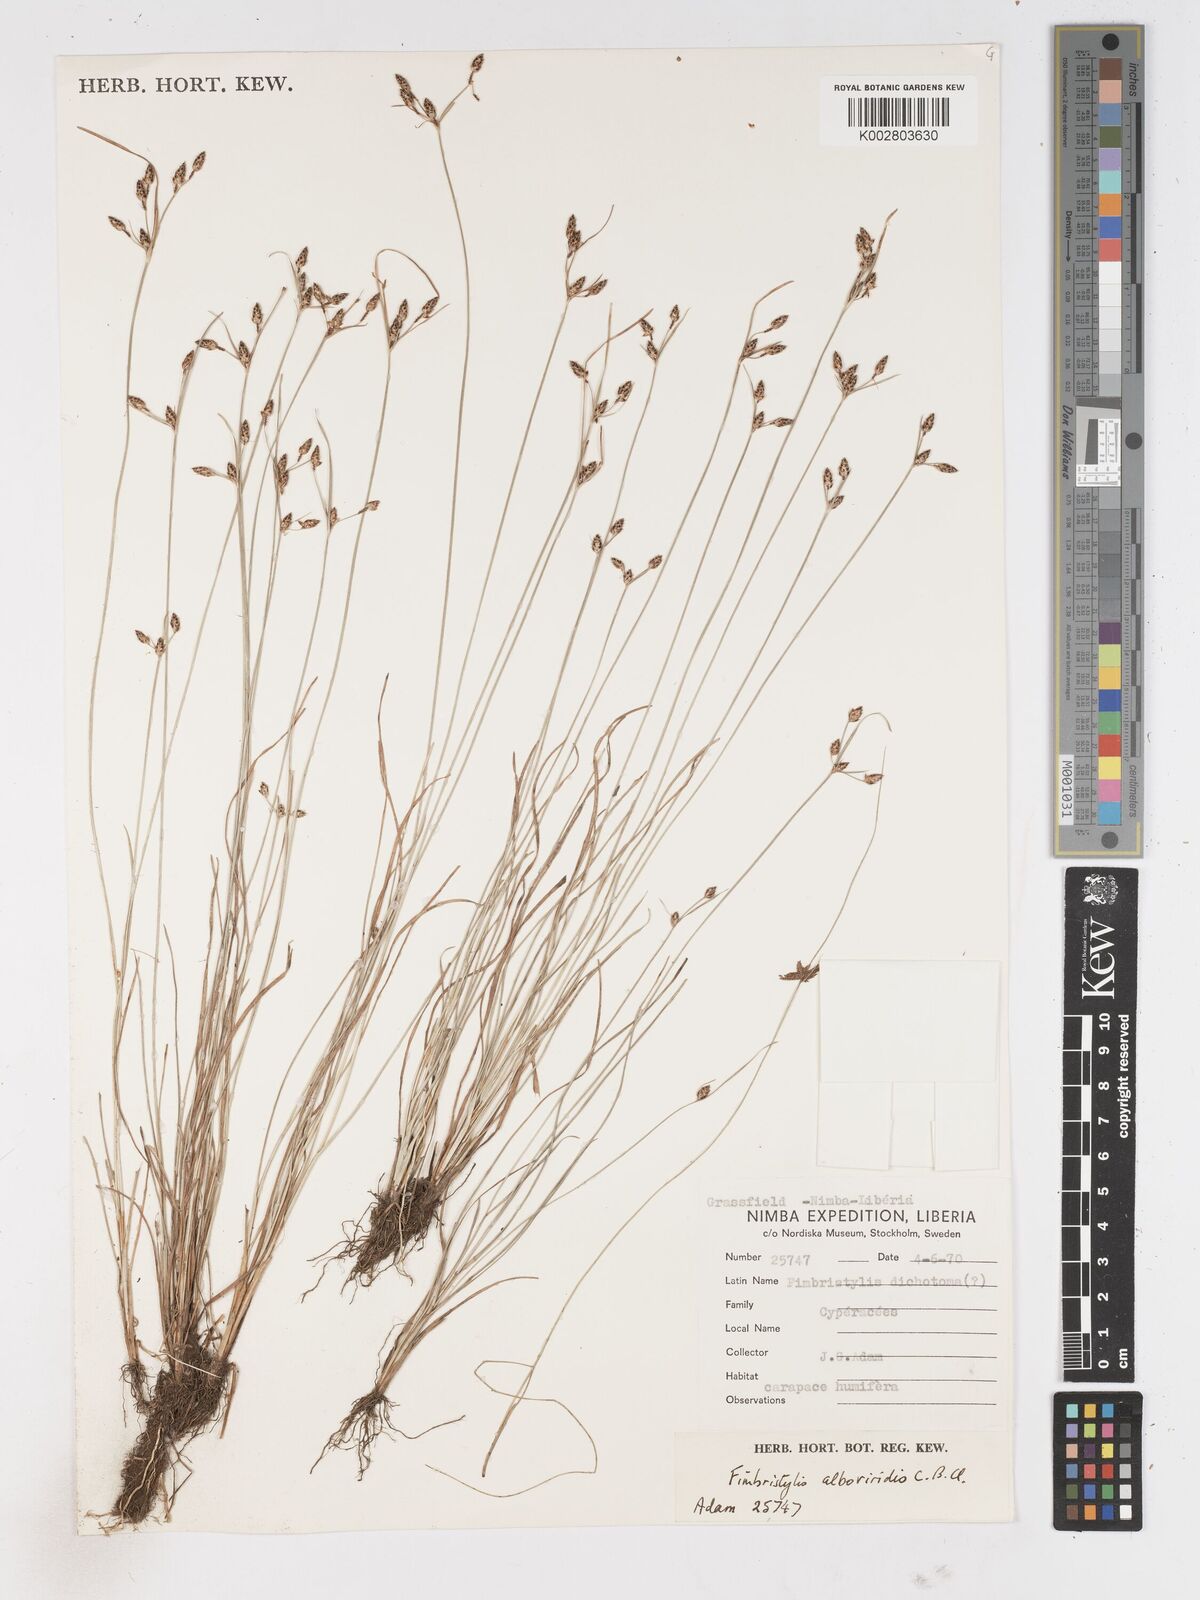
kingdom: Plantae
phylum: Tracheophyta
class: Liliopsida
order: Poales
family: Cyperaceae
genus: Fimbristylis
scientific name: Fimbristylis alboviridis
